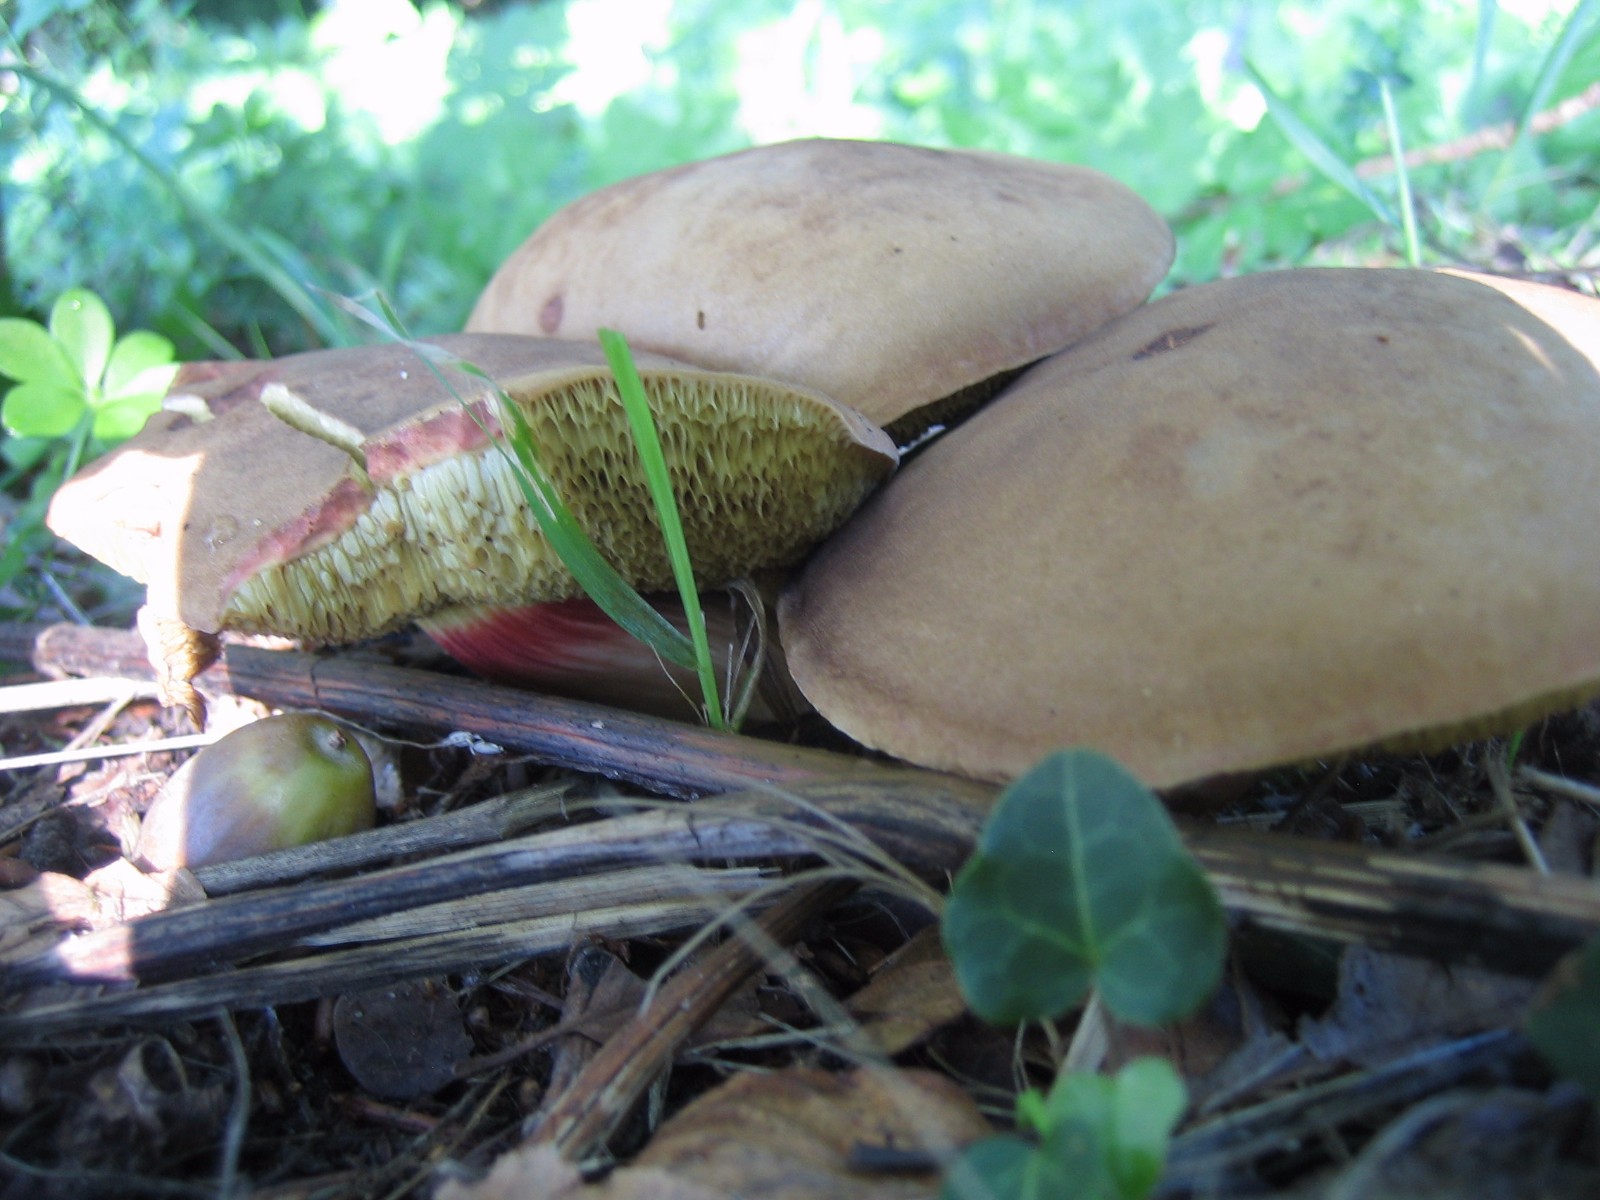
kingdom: Fungi
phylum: Basidiomycota
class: Agaricomycetes
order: Boletales
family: Boletaceae
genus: Xerocomellus
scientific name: Xerocomellus
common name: dværgrørhat
